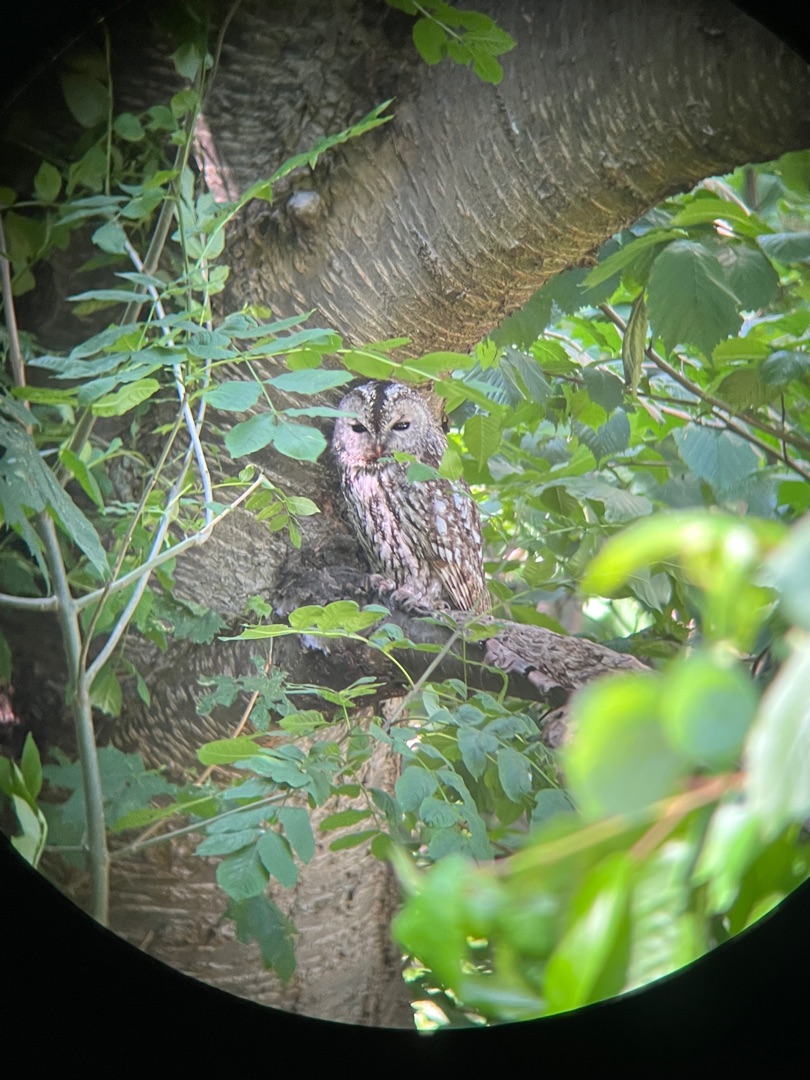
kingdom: Animalia
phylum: Chordata
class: Aves
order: Strigiformes
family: Strigidae
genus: Strix
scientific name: Strix aluco
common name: Natugle
